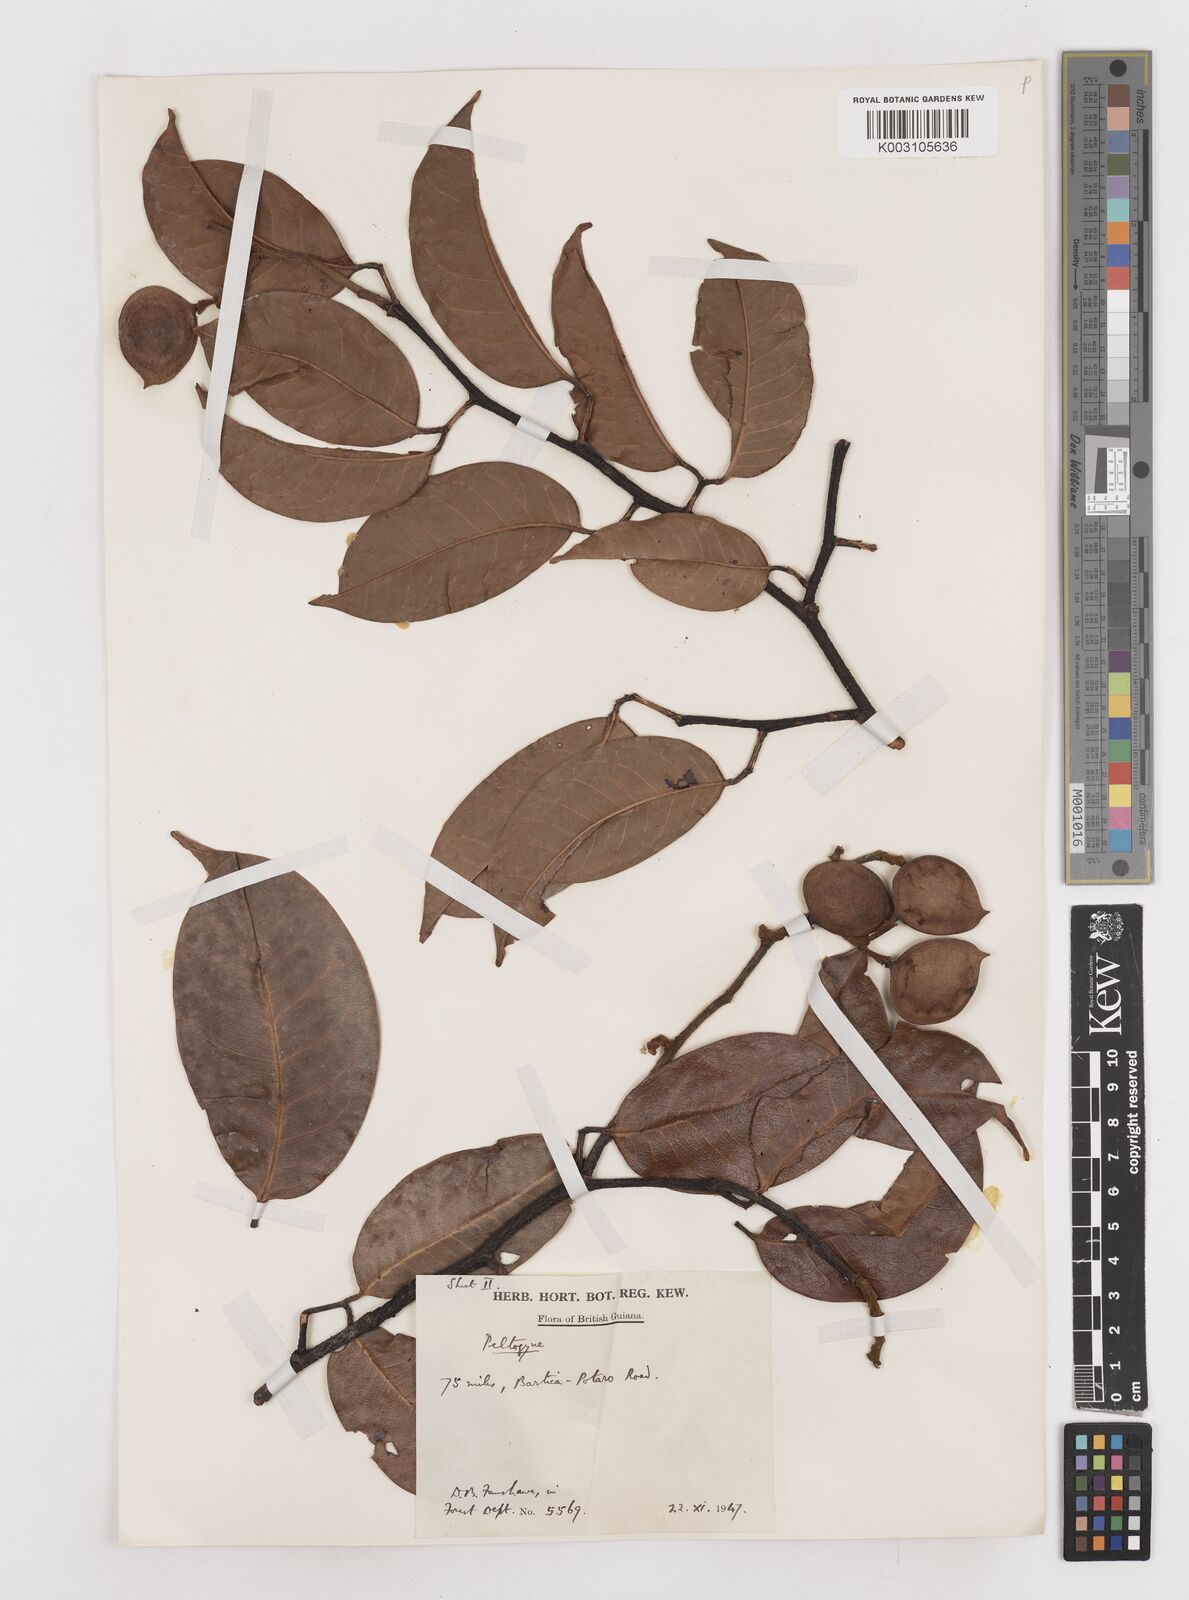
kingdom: Plantae
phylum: Tracheophyta
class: Magnoliopsida
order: Fabales
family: Fabaceae
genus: Peltogyne
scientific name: Peltogyne venosa
